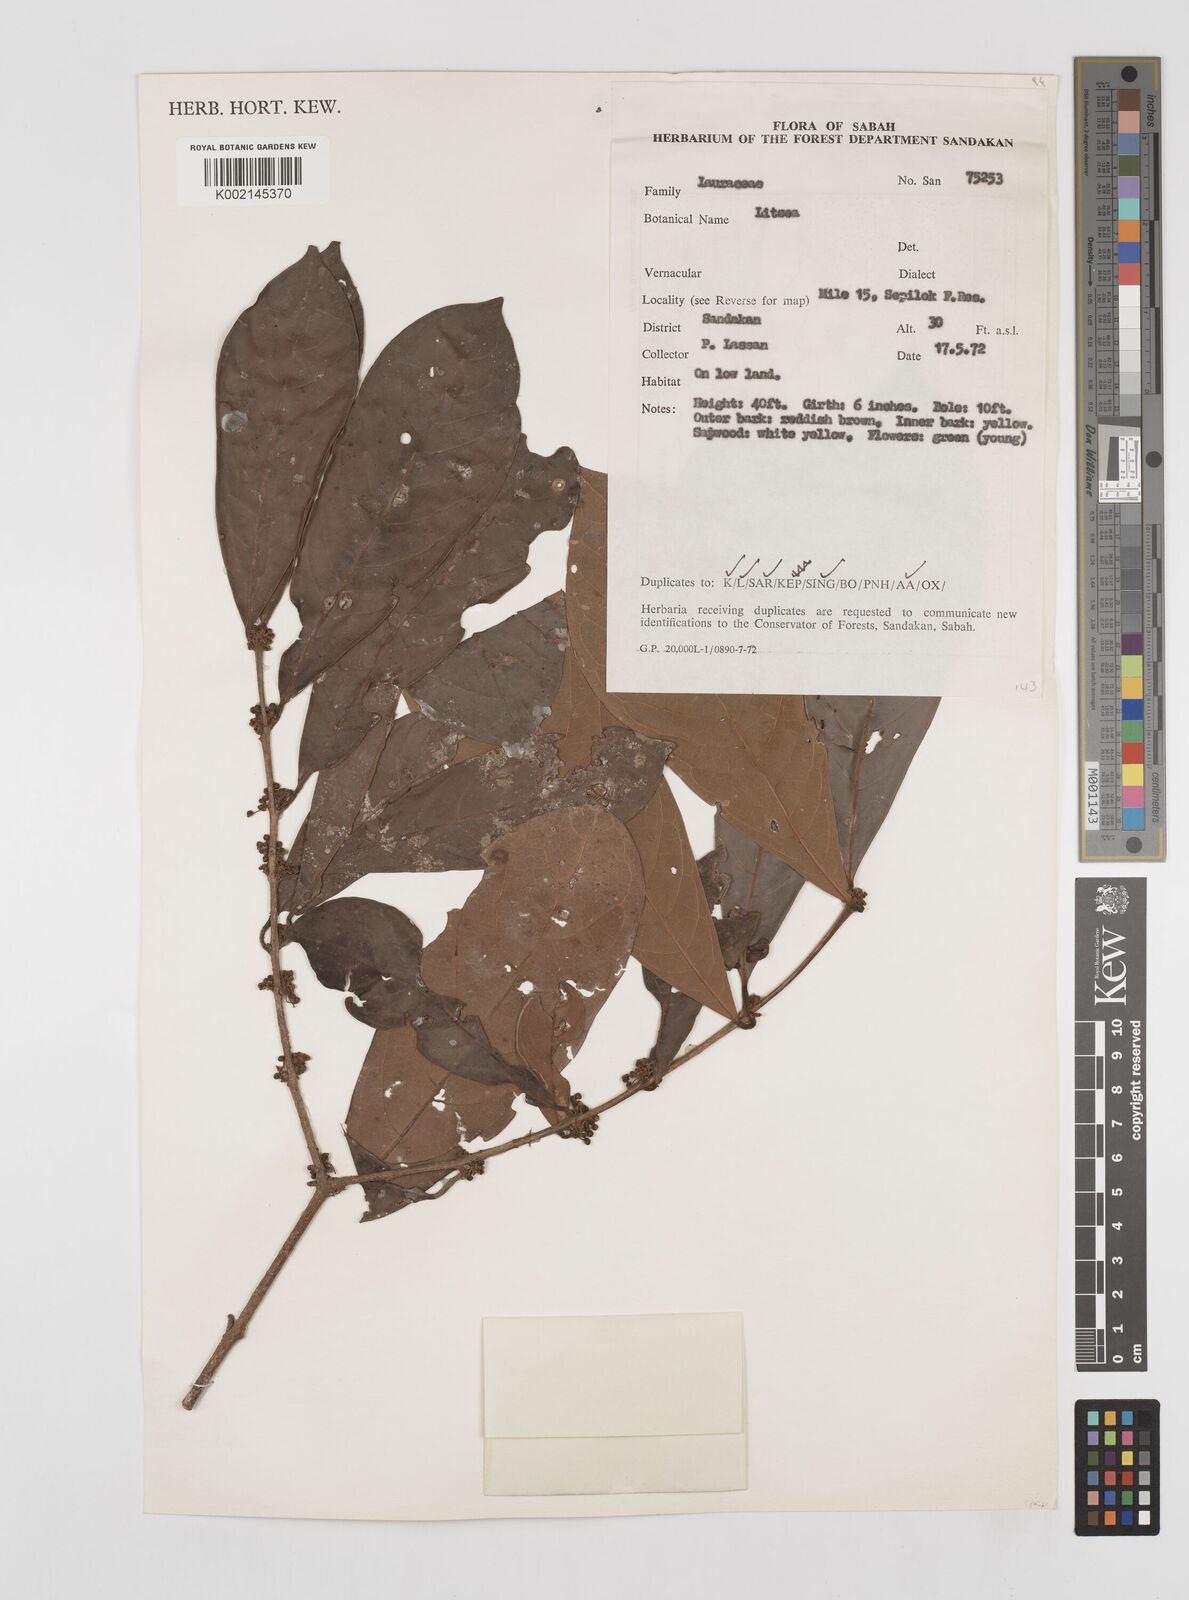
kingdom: Plantae
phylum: Tracheophyta
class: Magnoliopsida
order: Laurales
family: Lauraceae
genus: Litsea
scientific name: Litsea
